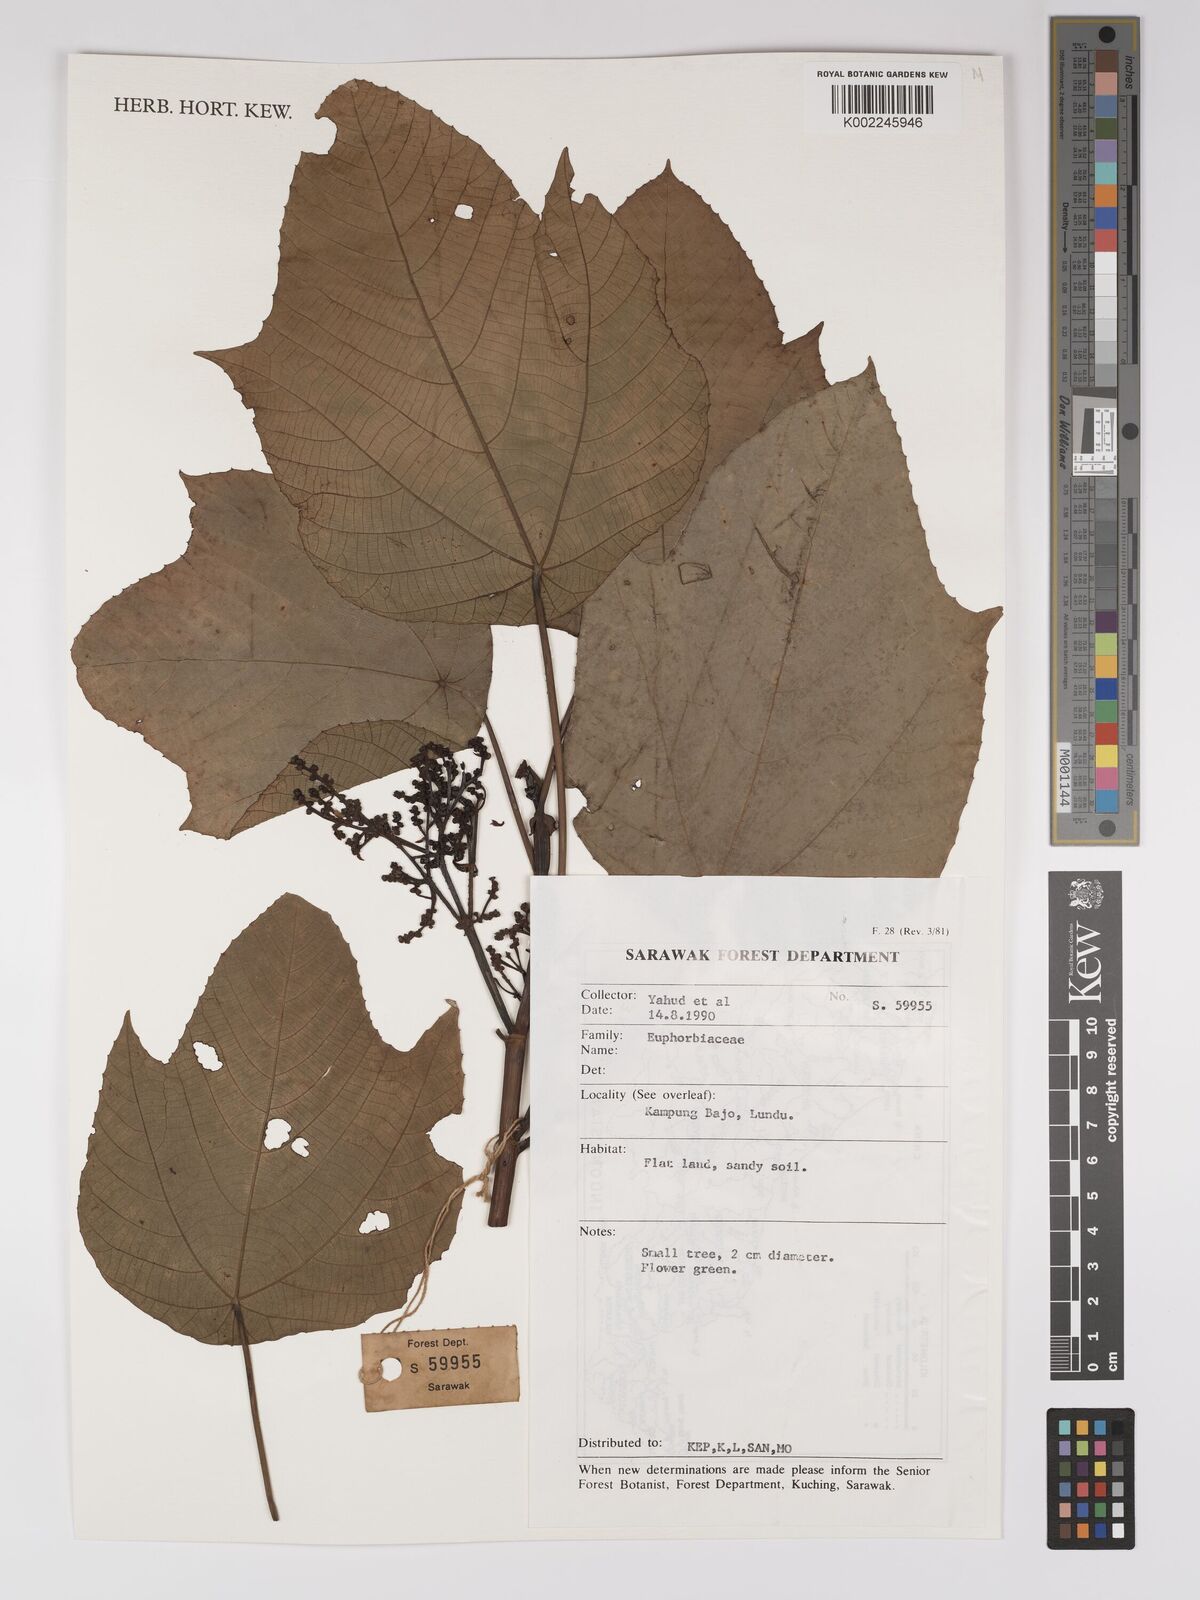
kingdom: Plantae
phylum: Tracheophyta
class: Magnoliopsida
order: Malpighiales
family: Euphorbiaceae
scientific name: Euphorbiaceae
